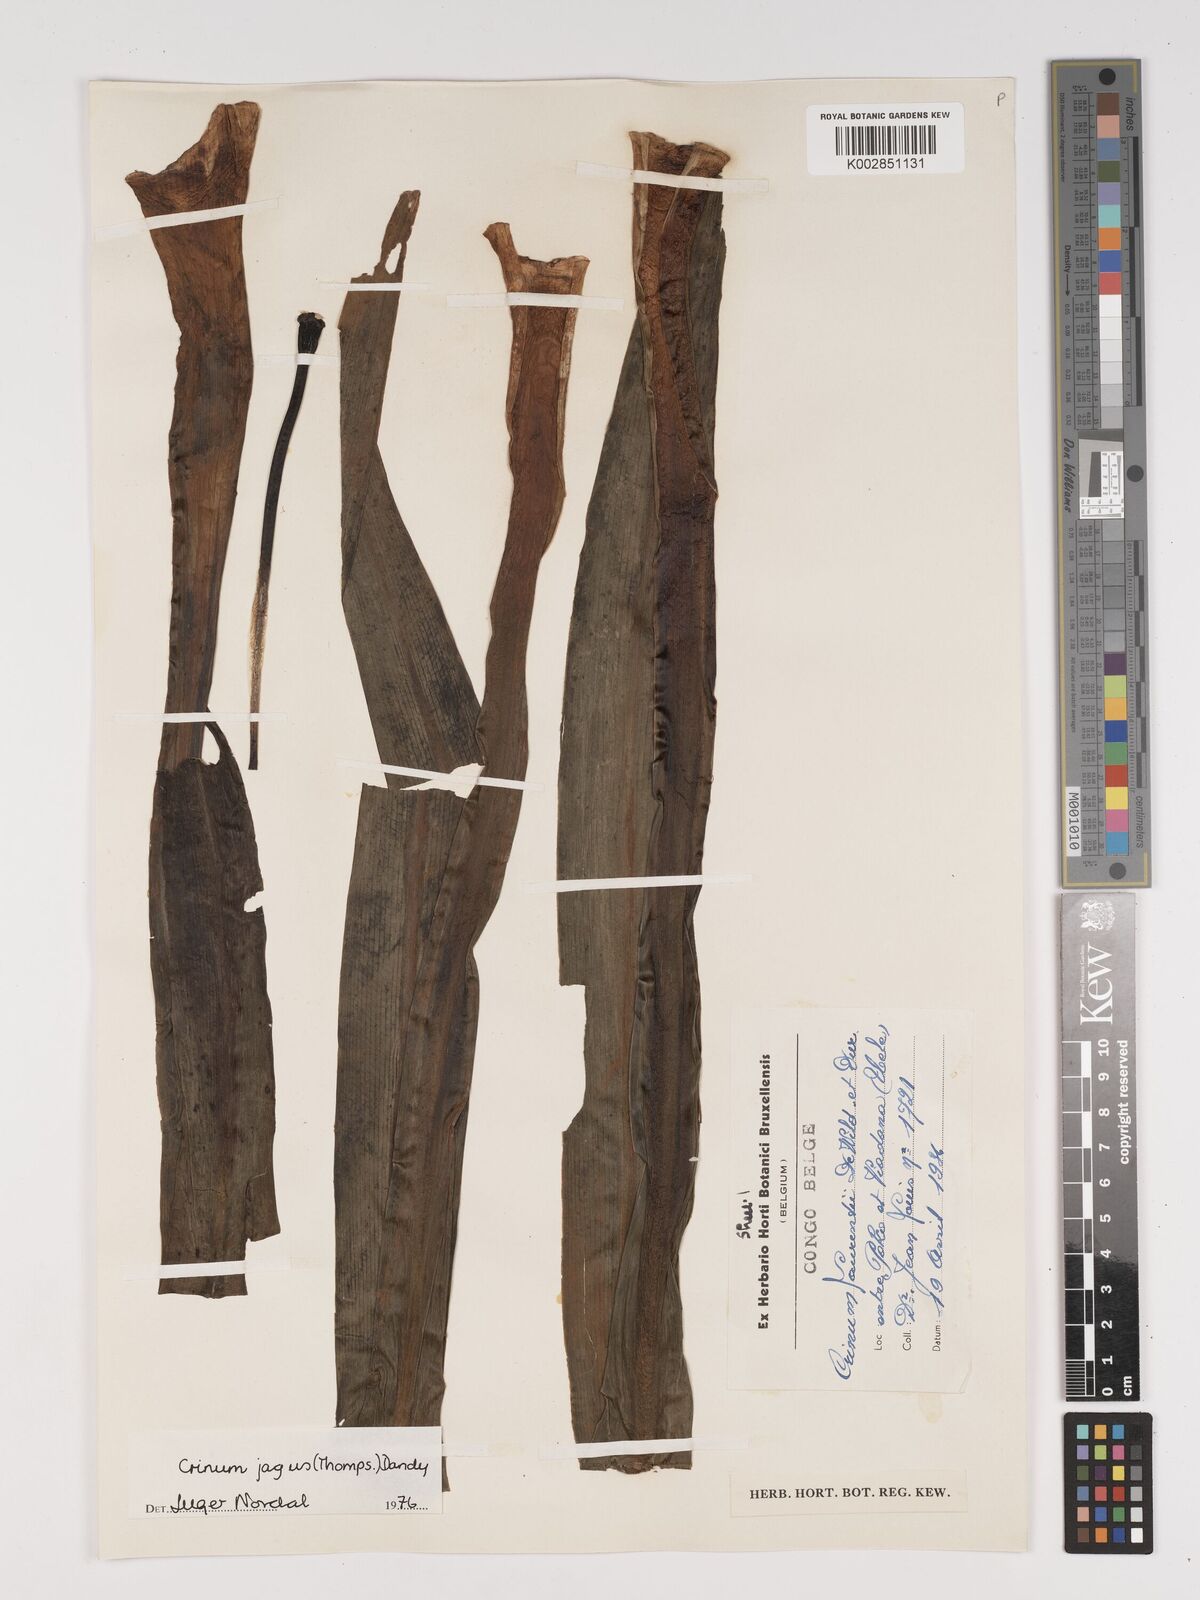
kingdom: Plantae
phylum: Tracheophyta
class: Liliopsida
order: Asparagales
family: Amaryllidaceae
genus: Crinum
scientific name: Crinum jagus
